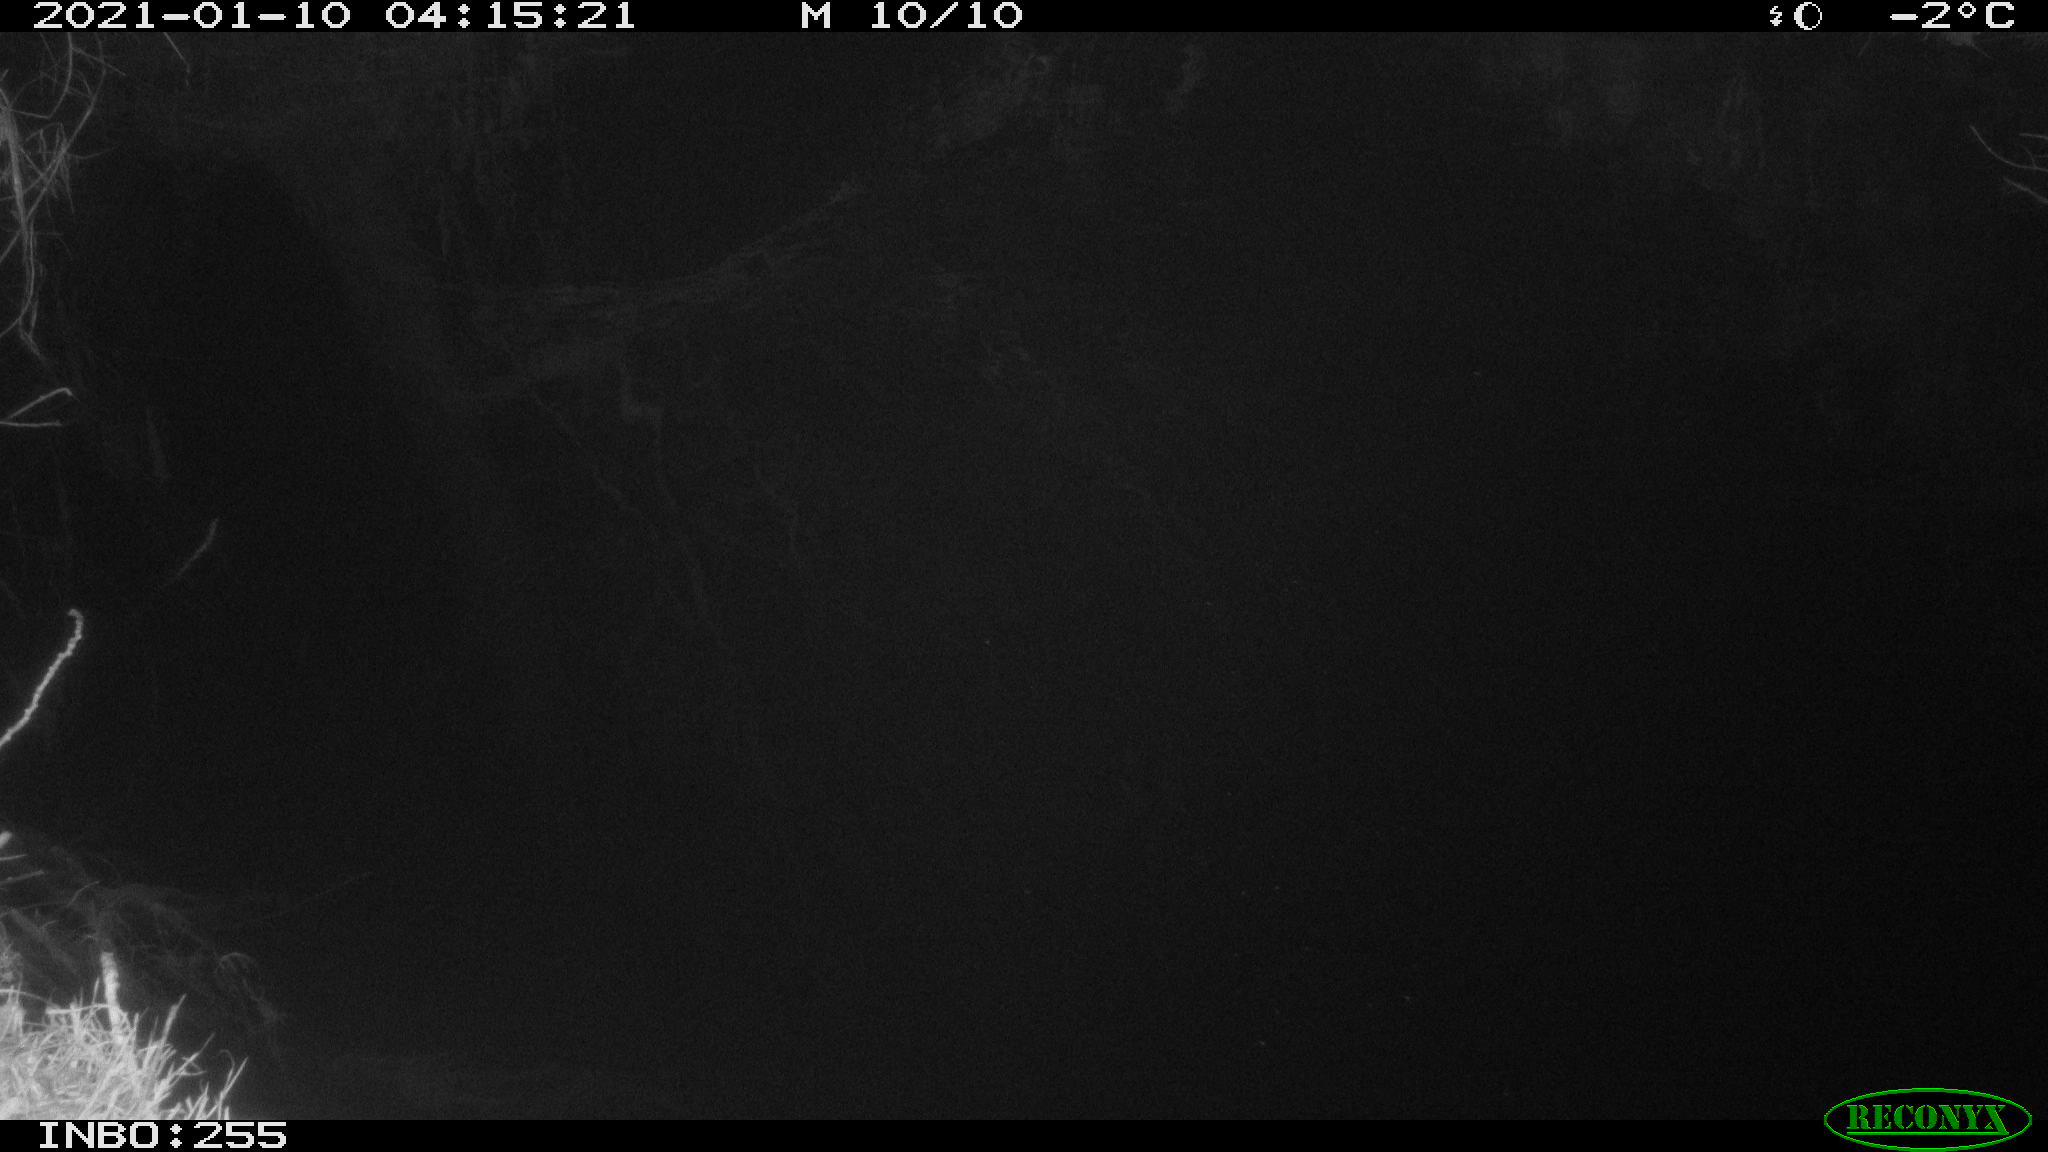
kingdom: Animalia
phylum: Chordata
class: Mammalia
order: Rodentia
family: Muridae
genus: Rattus
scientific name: Rattus norvegicus
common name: Brown rat
